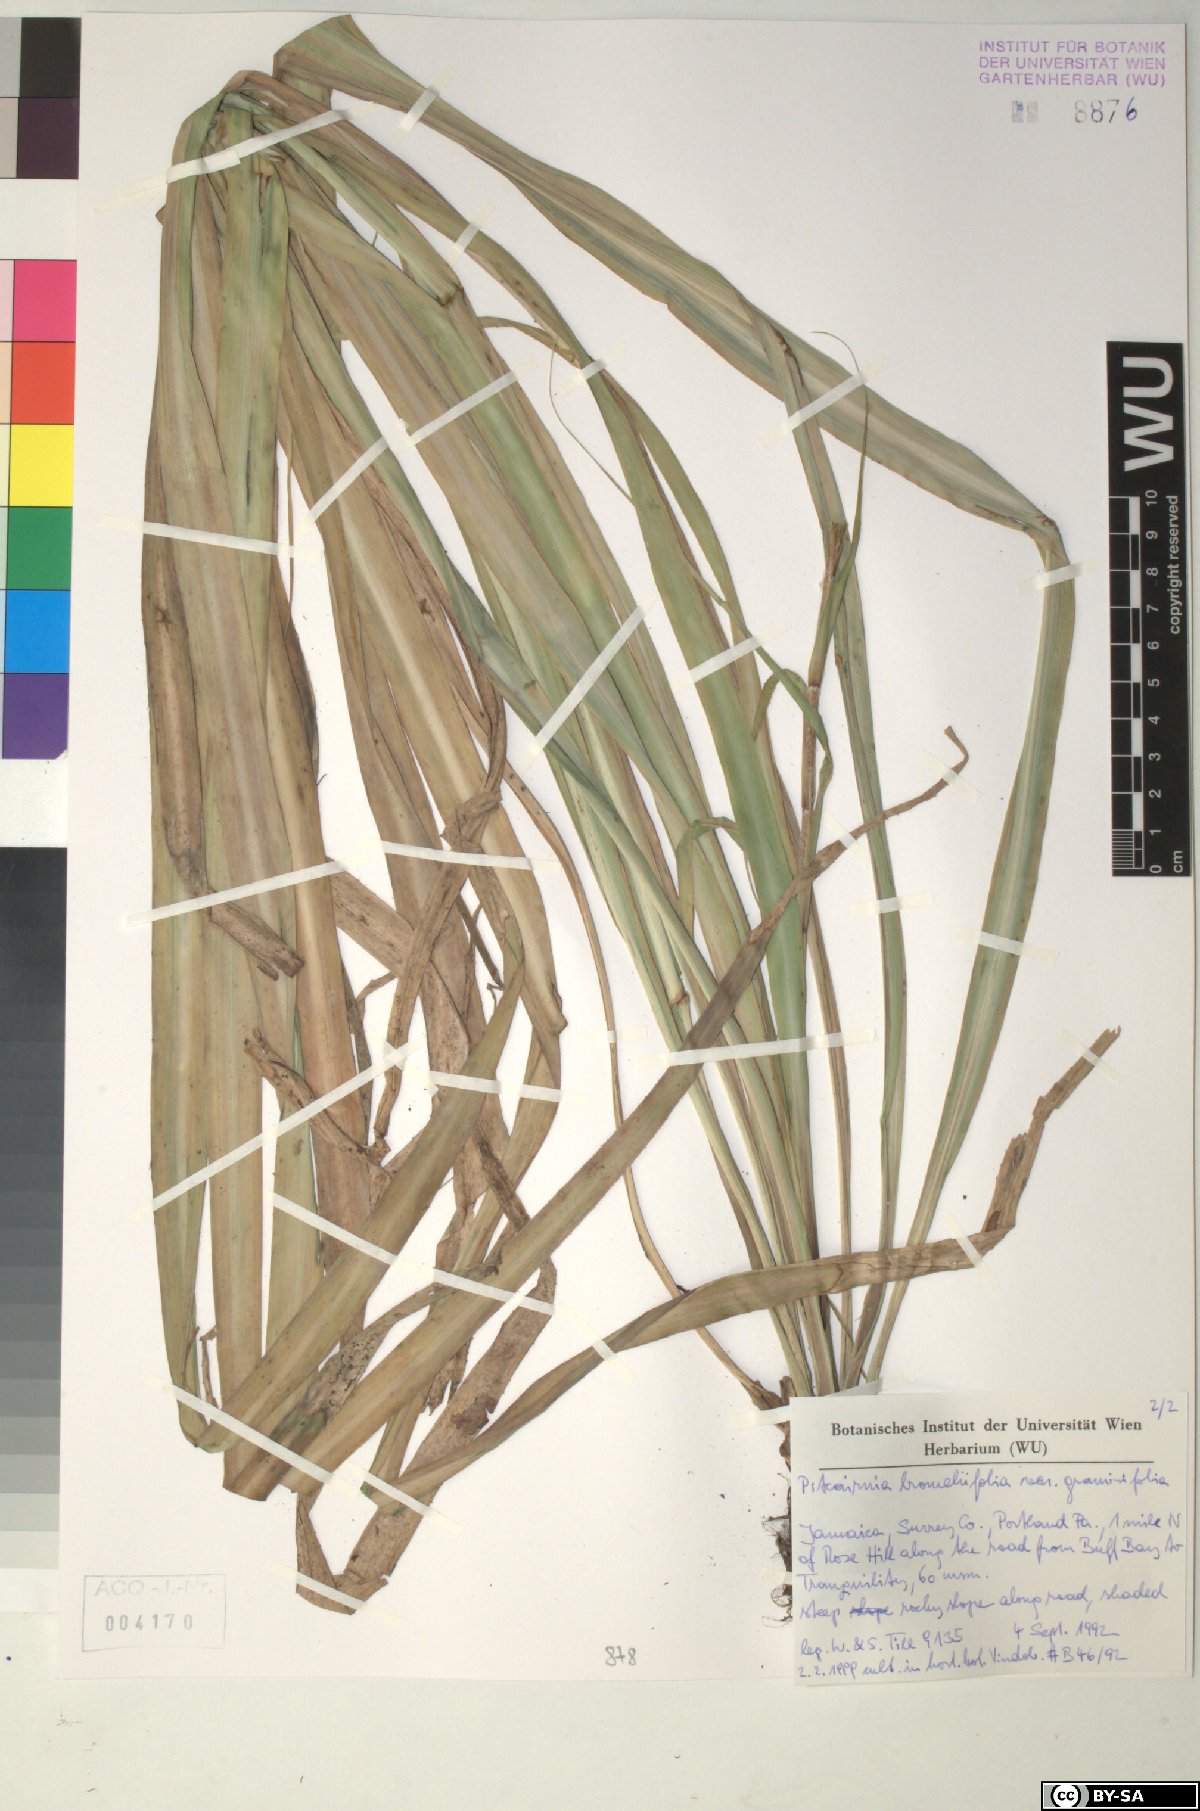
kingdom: Plantae
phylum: Tracheophyta
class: Liliopsida
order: Poales
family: Bromeliaceae
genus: Pitcairnia
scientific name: Pitcairnia bromeliifolia
